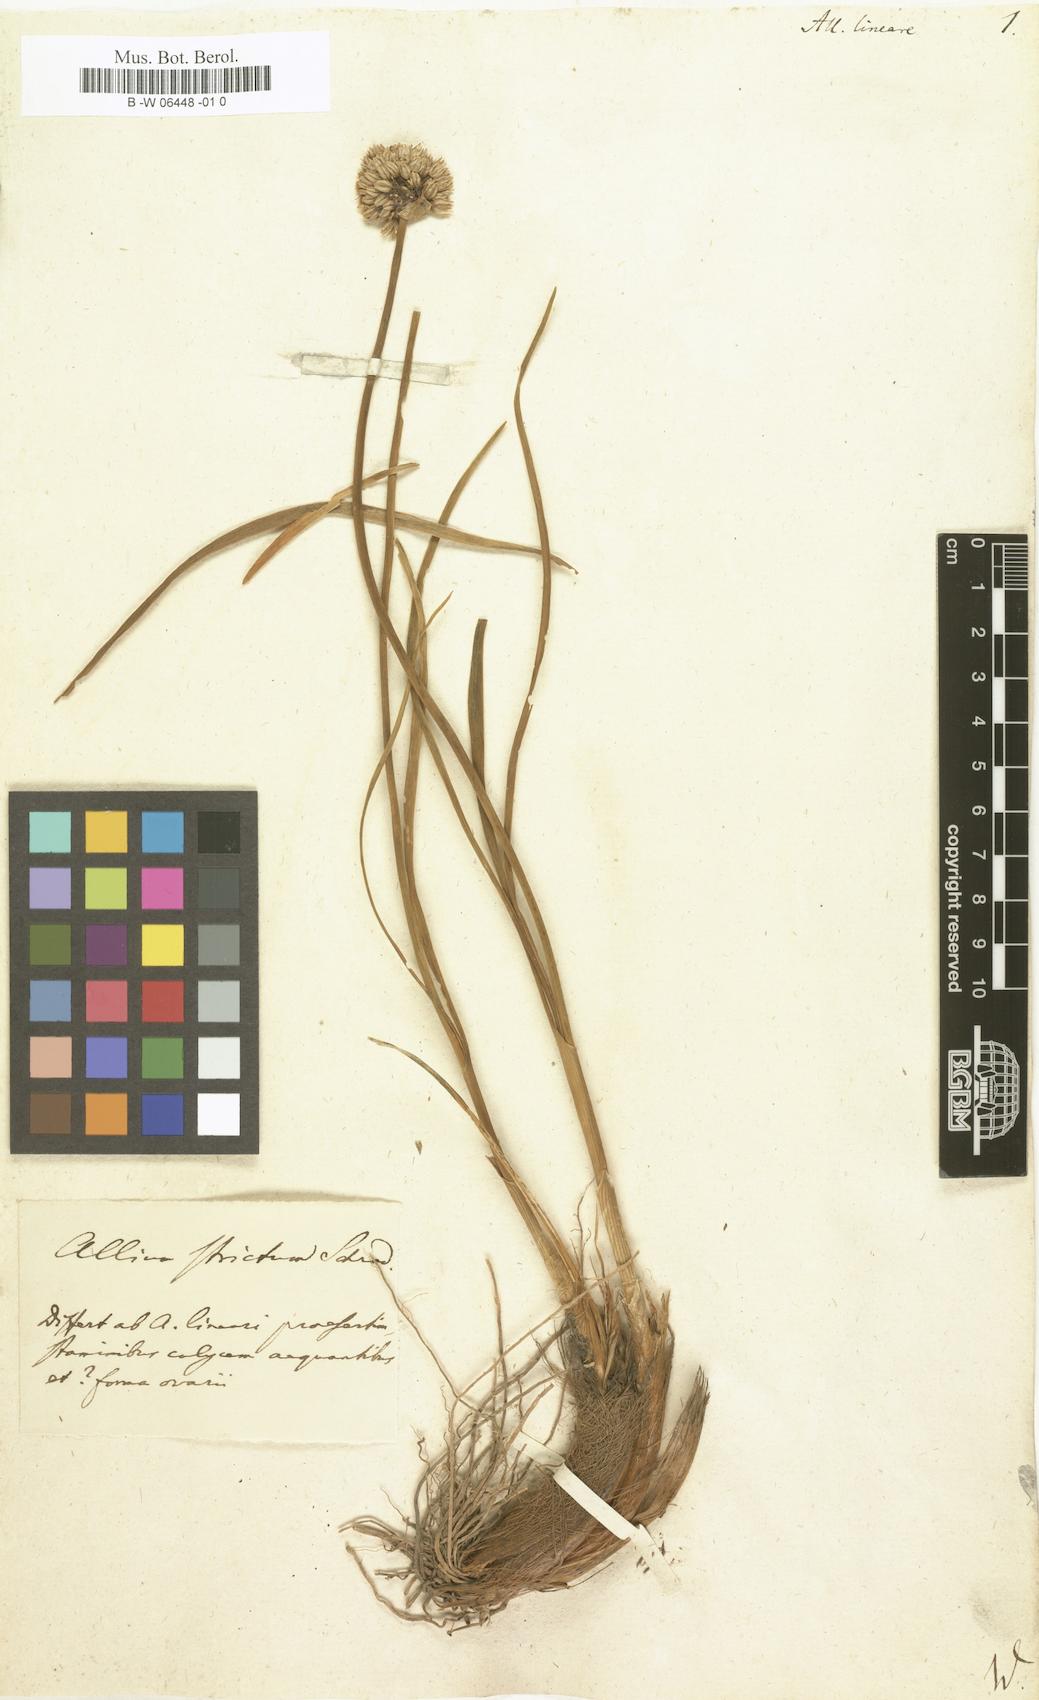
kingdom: Plantae
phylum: Tracheophyta
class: Liliopsida
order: Asparagales
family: Amaryllidaceae
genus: Allium
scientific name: Allium lineare
